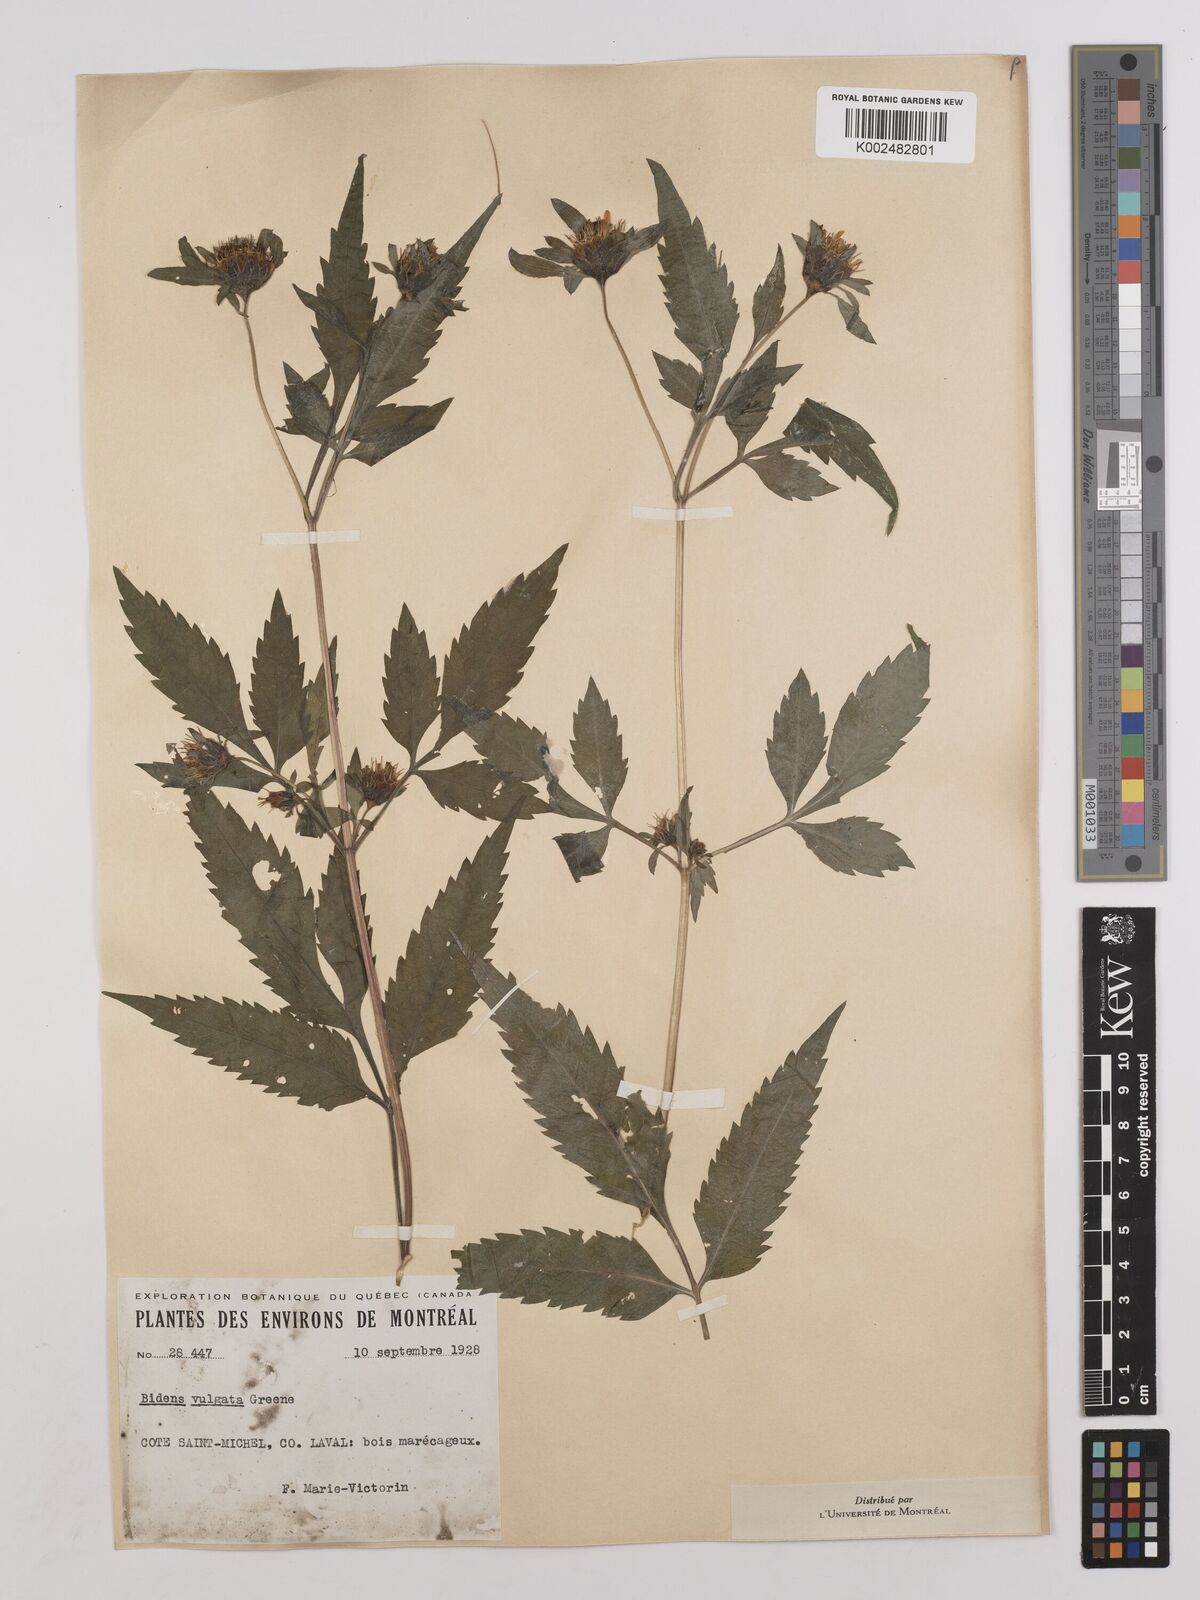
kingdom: Plantae
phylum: Tracheophyta
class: Magnoliopsida
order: Asterales
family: Asteraceae
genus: Bidens
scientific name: Bidens vulgata
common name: Tall beggarticks
